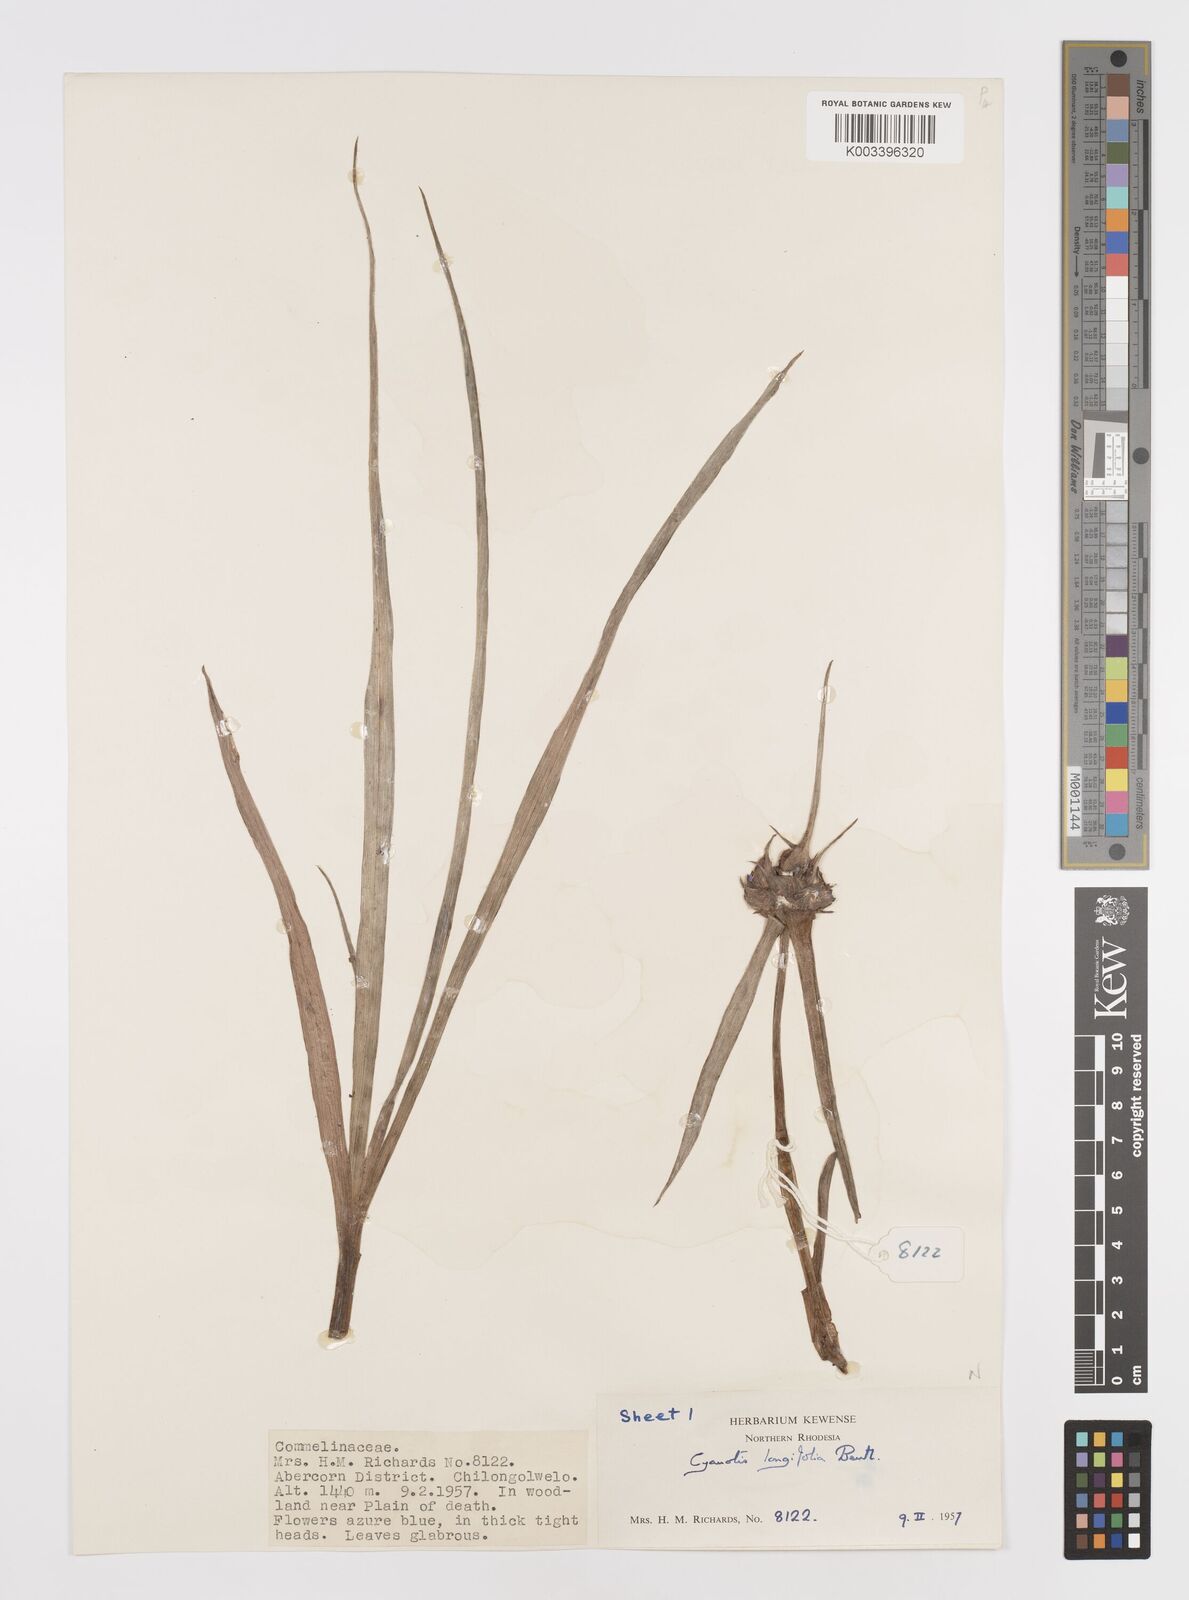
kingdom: Plantae
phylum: Tracheophyta
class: Liliopsida
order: Commelinales
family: Commelinaceae
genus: Cyanotis
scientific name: Cyanotis longifolia
